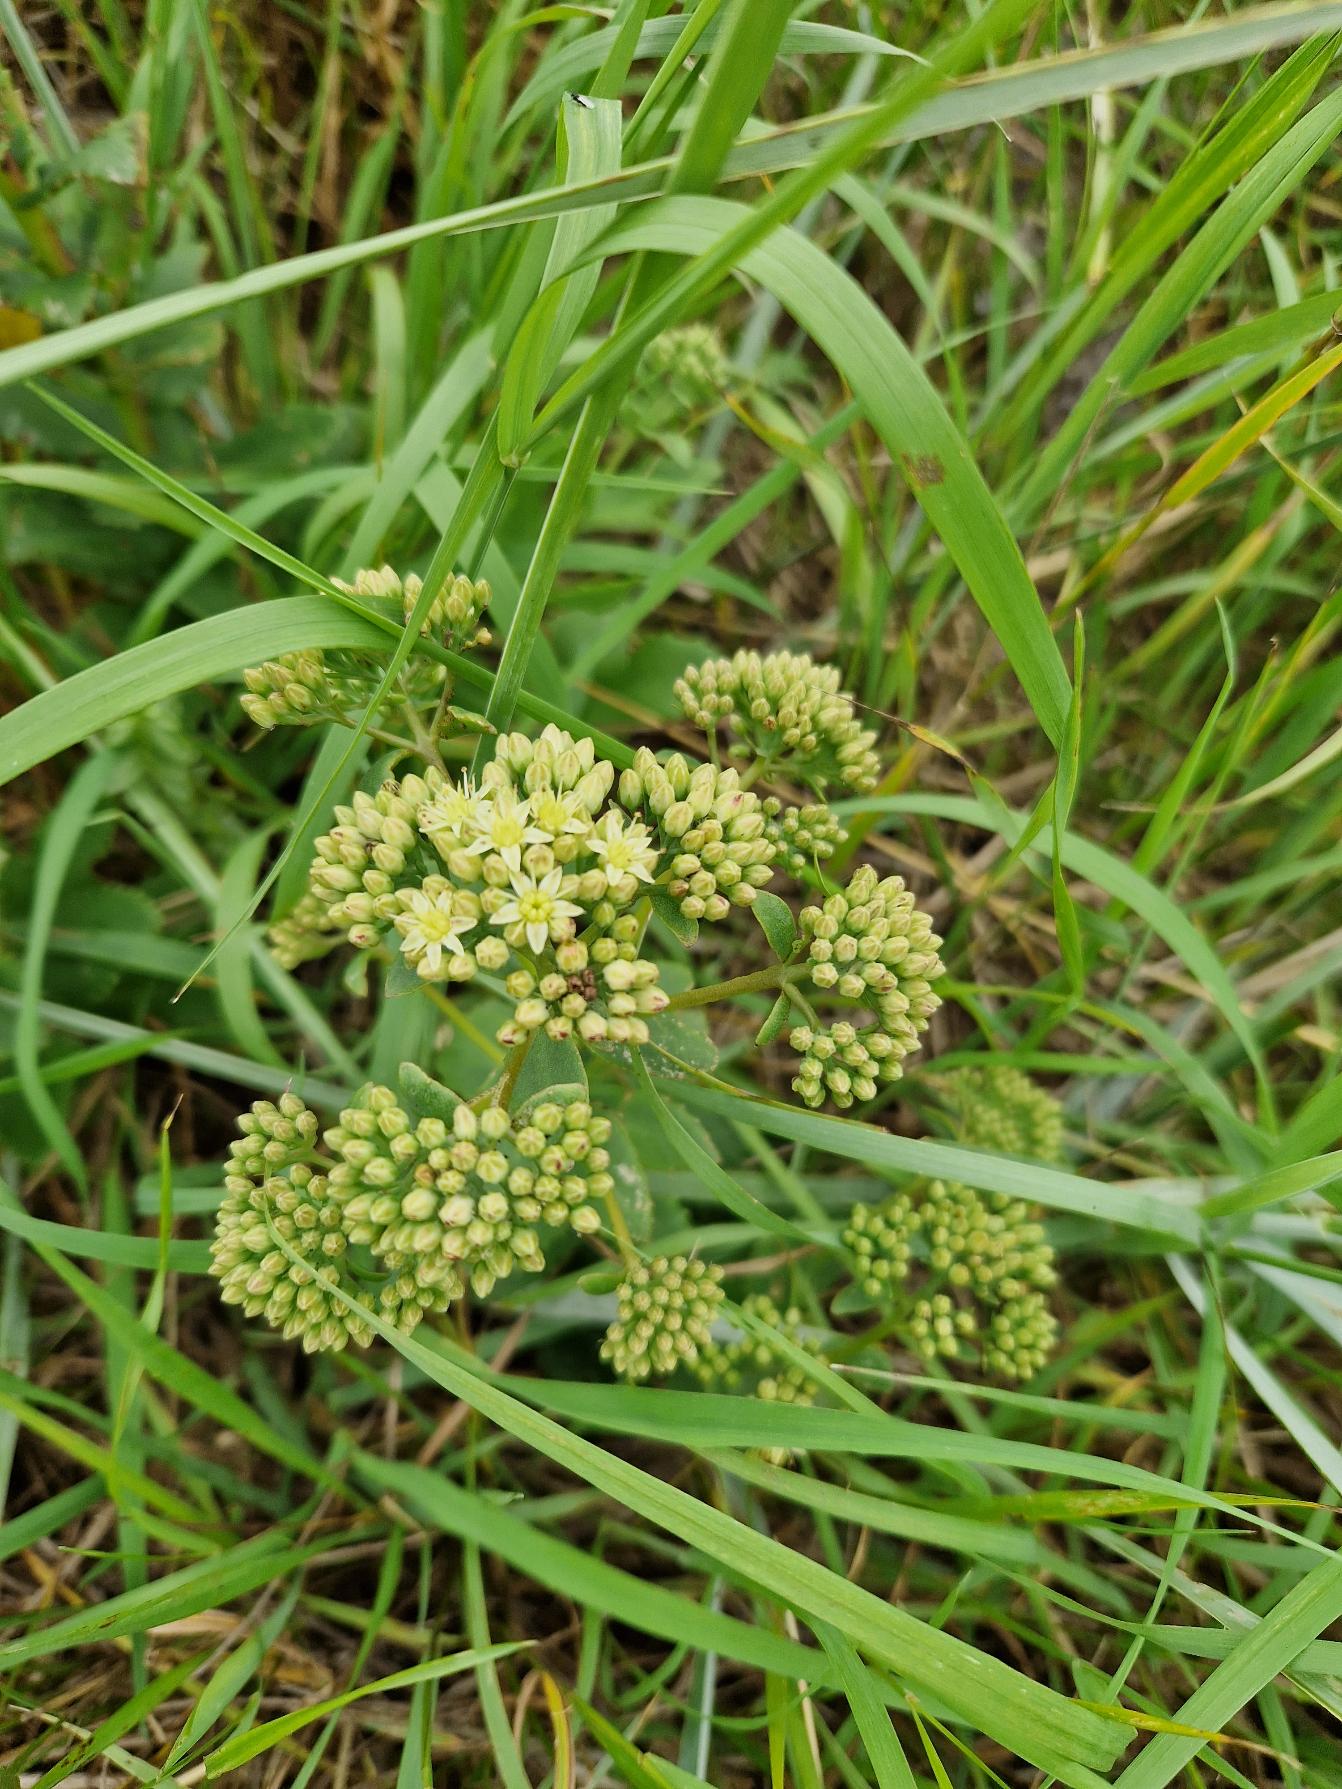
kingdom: Plantae
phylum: Tracheophyta
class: Magnoliopsida
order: Saxifragales
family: Crassulaceae
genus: Hylotelephium
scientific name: Hylotelephium maximum
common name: Almindelig sankthansurt
